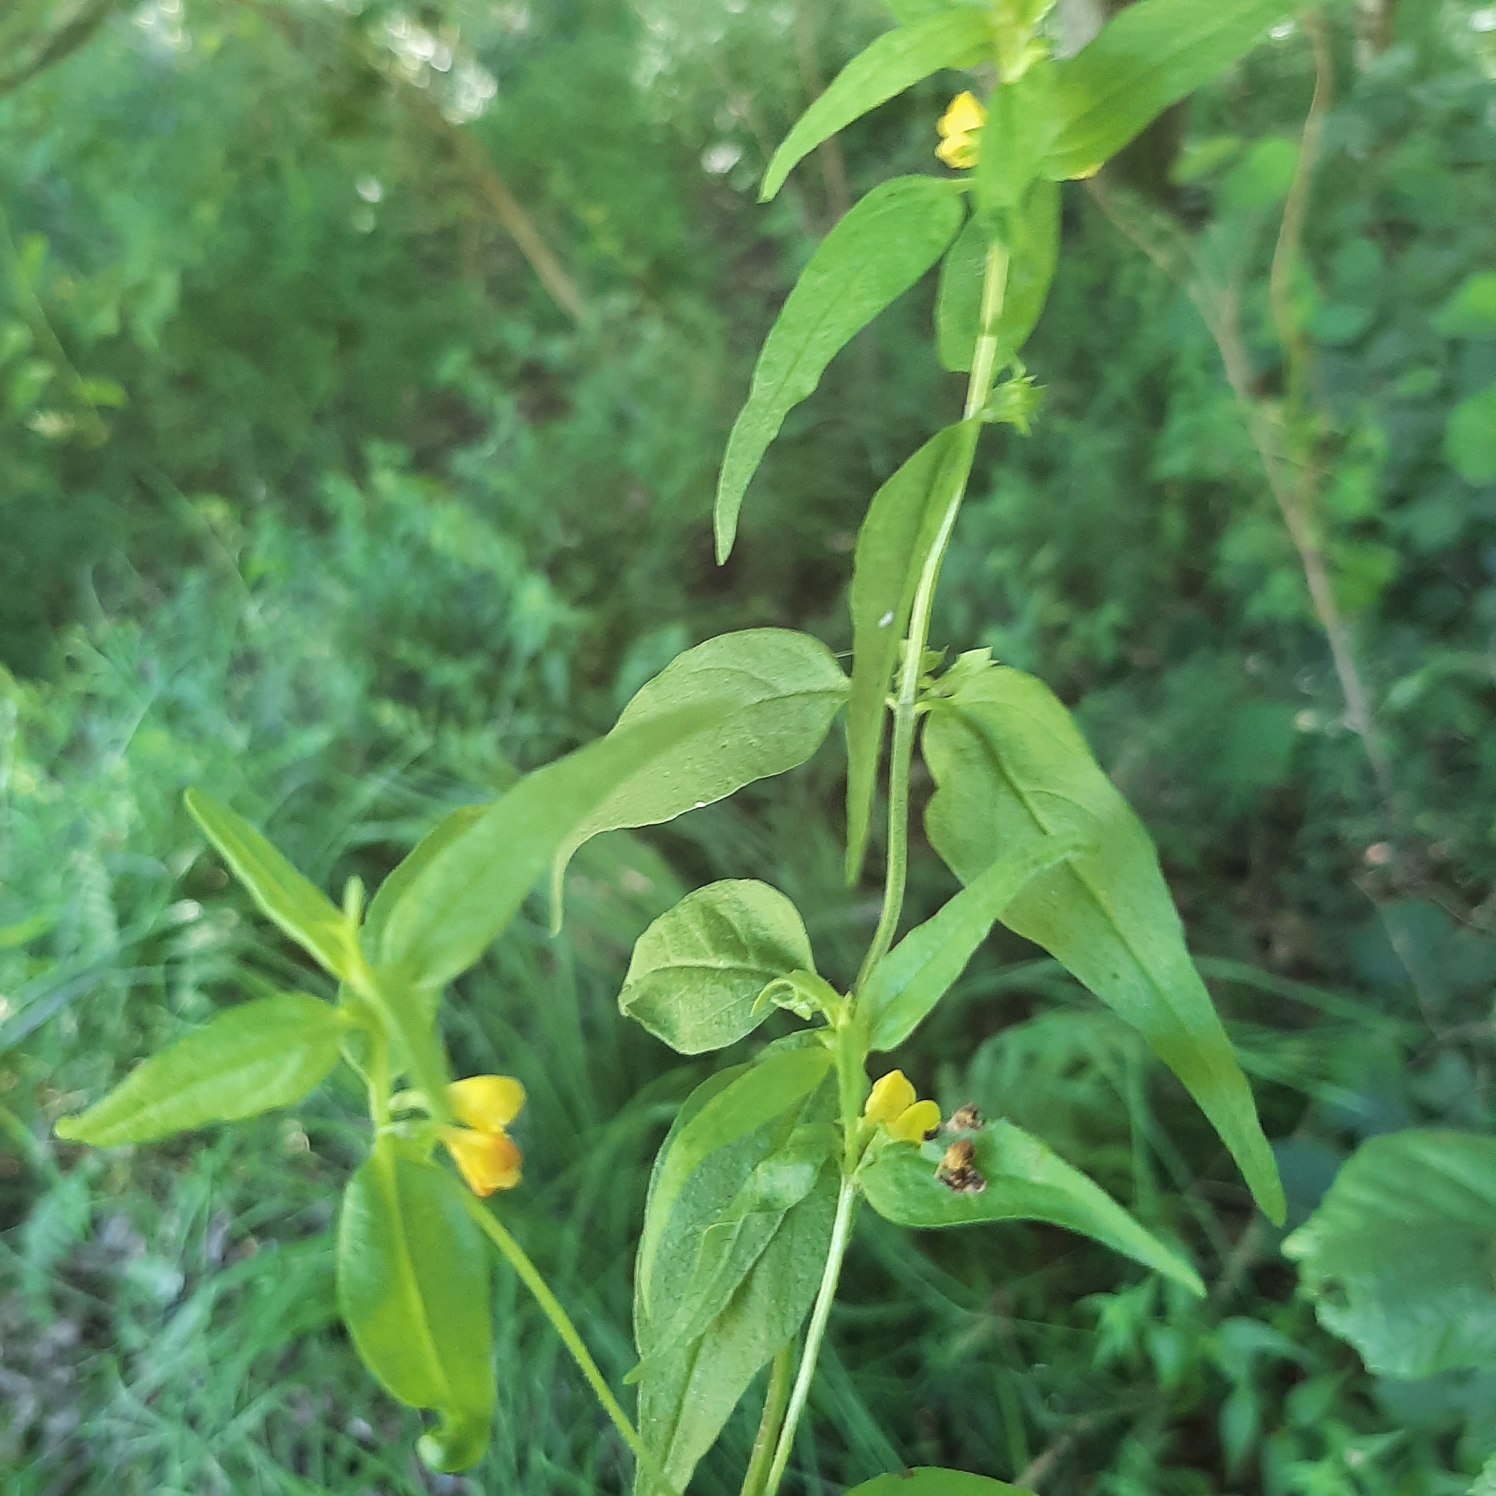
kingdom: Plantae
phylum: Tracheophyta
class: Magnoliopsida
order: Lamiales
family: Orobanchaceae
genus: Melampyrum
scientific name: Melampyrum sylvaticum
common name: Skov-kohvede
